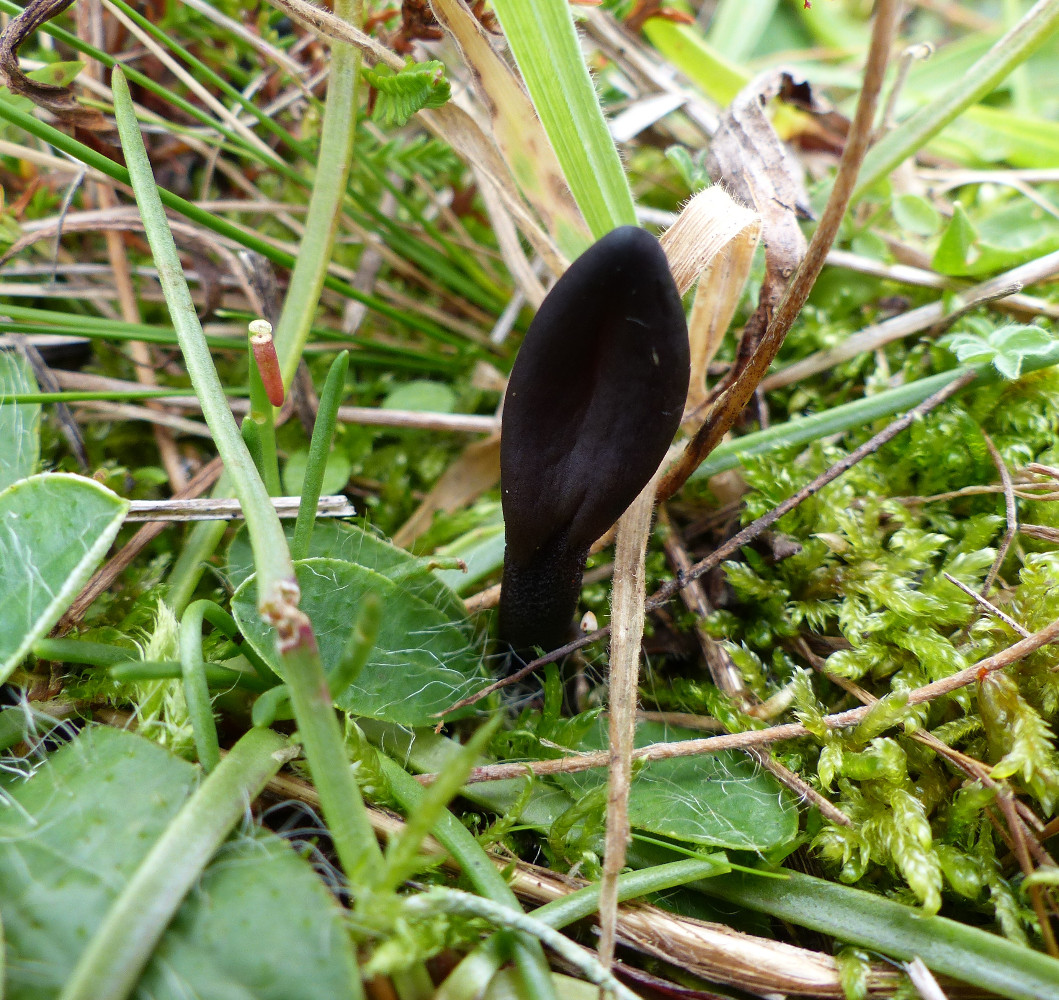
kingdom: Fungi
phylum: Ascomycota
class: Geoglossomycetes
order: Geoglossales
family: Geoglossaceae
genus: Geoglossum
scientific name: Geoglossum
